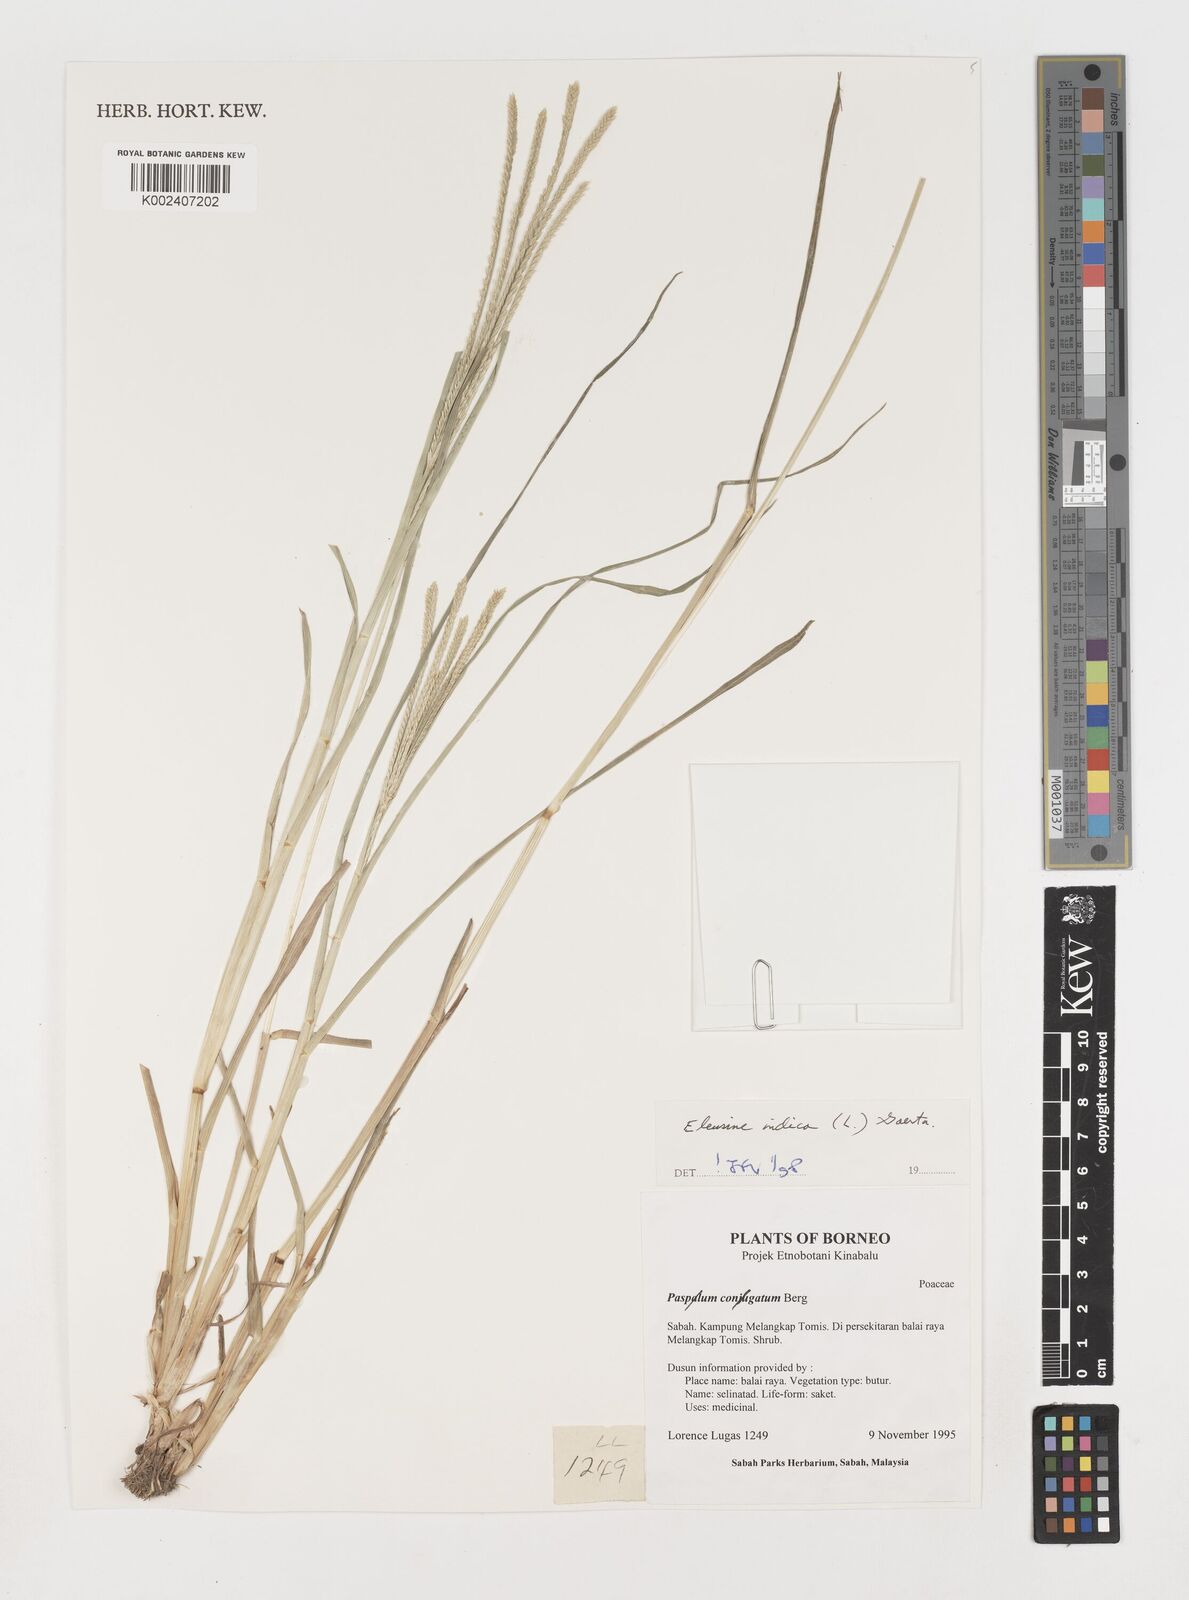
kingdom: Plantae
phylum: Tracheophyta
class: Liliopsida
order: Poales
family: Poaceae
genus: Eleusine
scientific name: Eleusine indica
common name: Yard-grass
